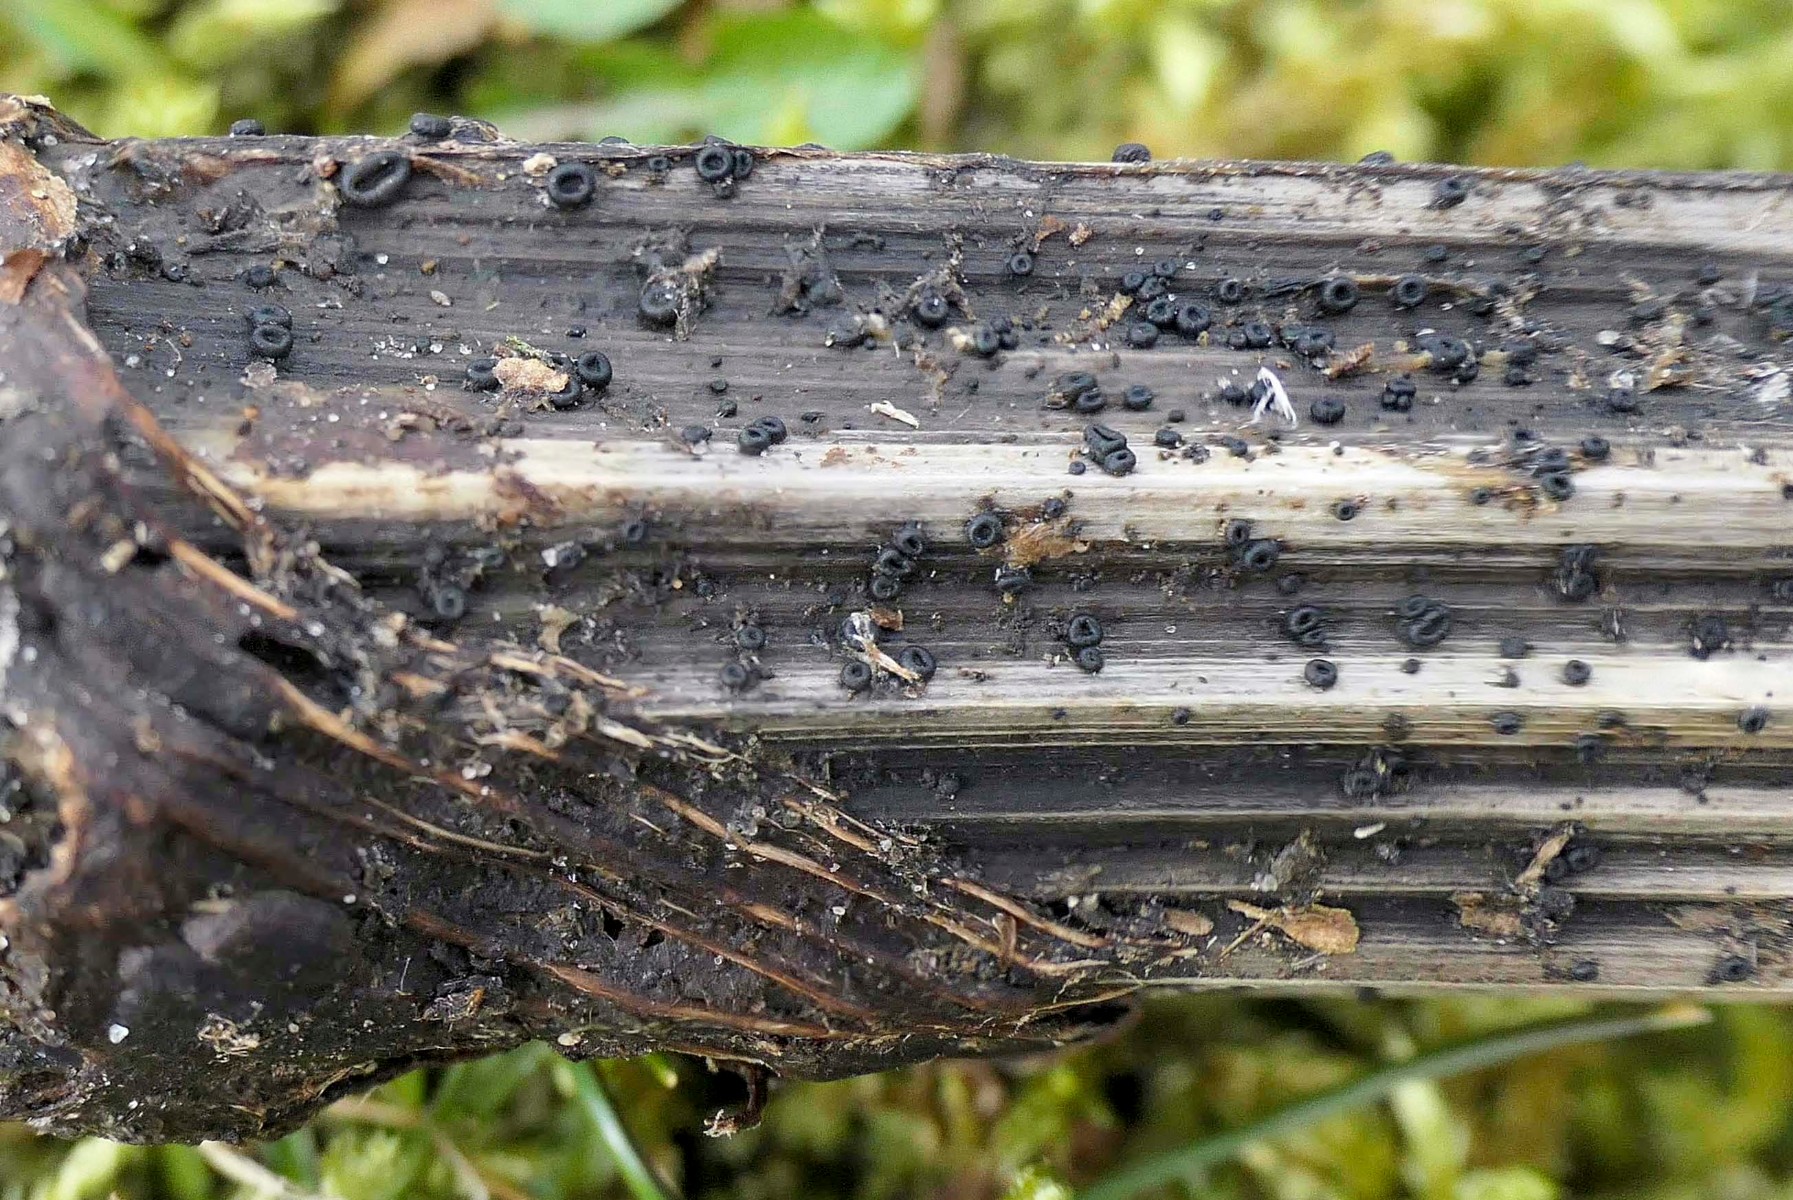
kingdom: Fungi
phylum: Ascomycota
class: Leotiomycetes
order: Helotiales
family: Heterosphaeriaceae
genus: Heterosphaeria
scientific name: Heterosphaeria
